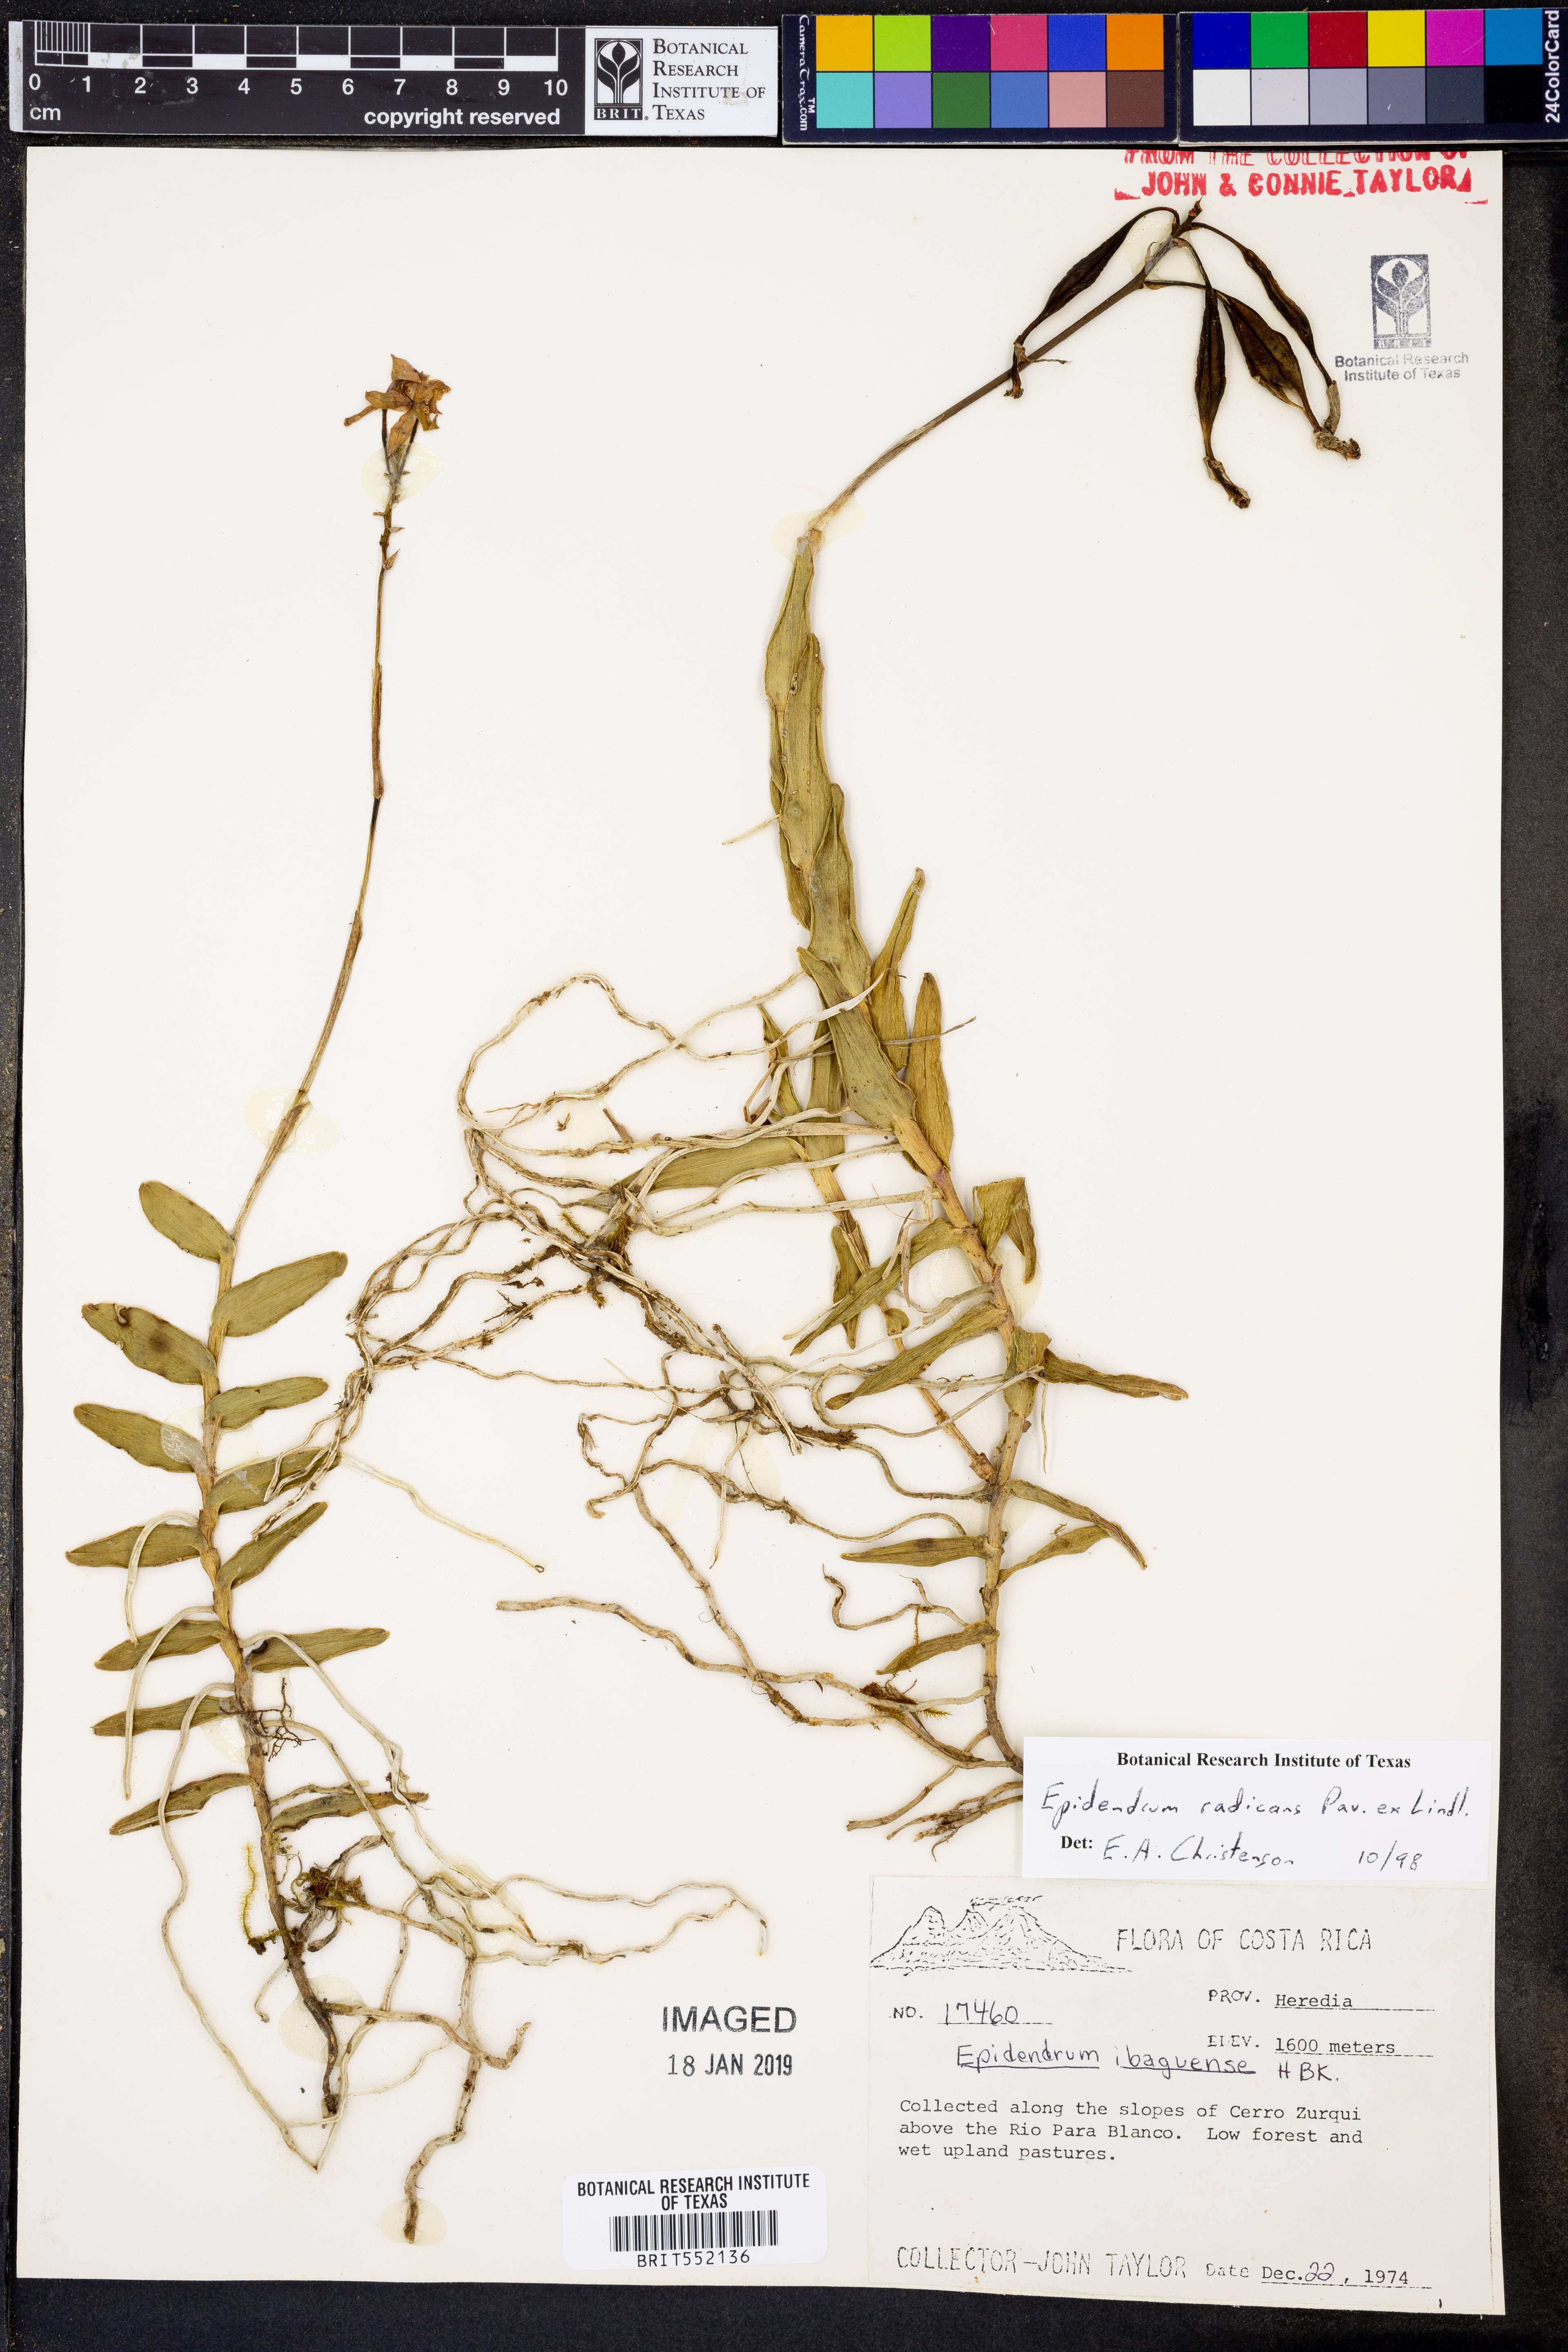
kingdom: Plantae
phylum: Tracheophyta
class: Liliopsida
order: Asparagales
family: Orchidaceae
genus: Epidendrum
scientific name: Epidendrum radicans
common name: Fire star orchid
